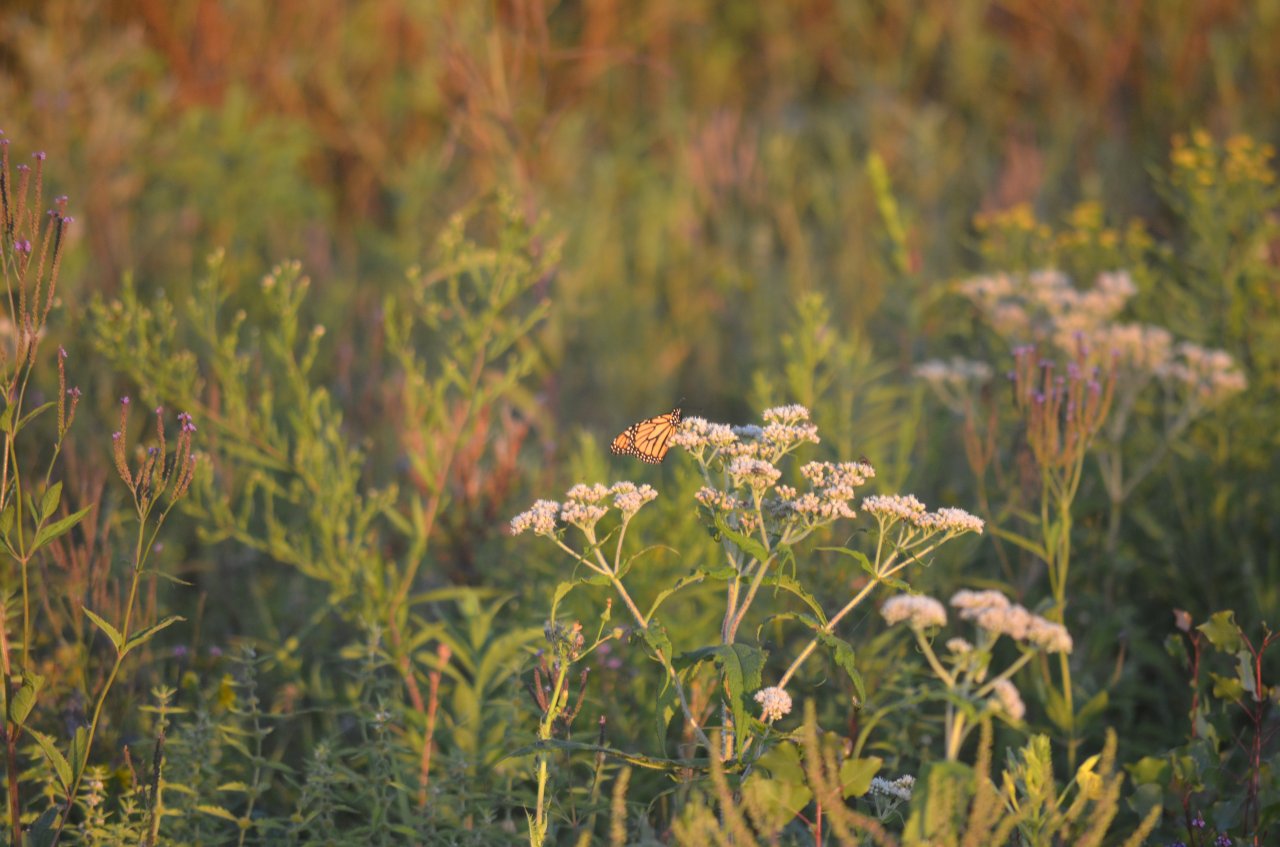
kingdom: Animalia
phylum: Arthropoda
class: Insecta
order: Lepidoptera
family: Nymphalidae
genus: Danaus
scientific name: Danaus plexippus
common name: Monarch
